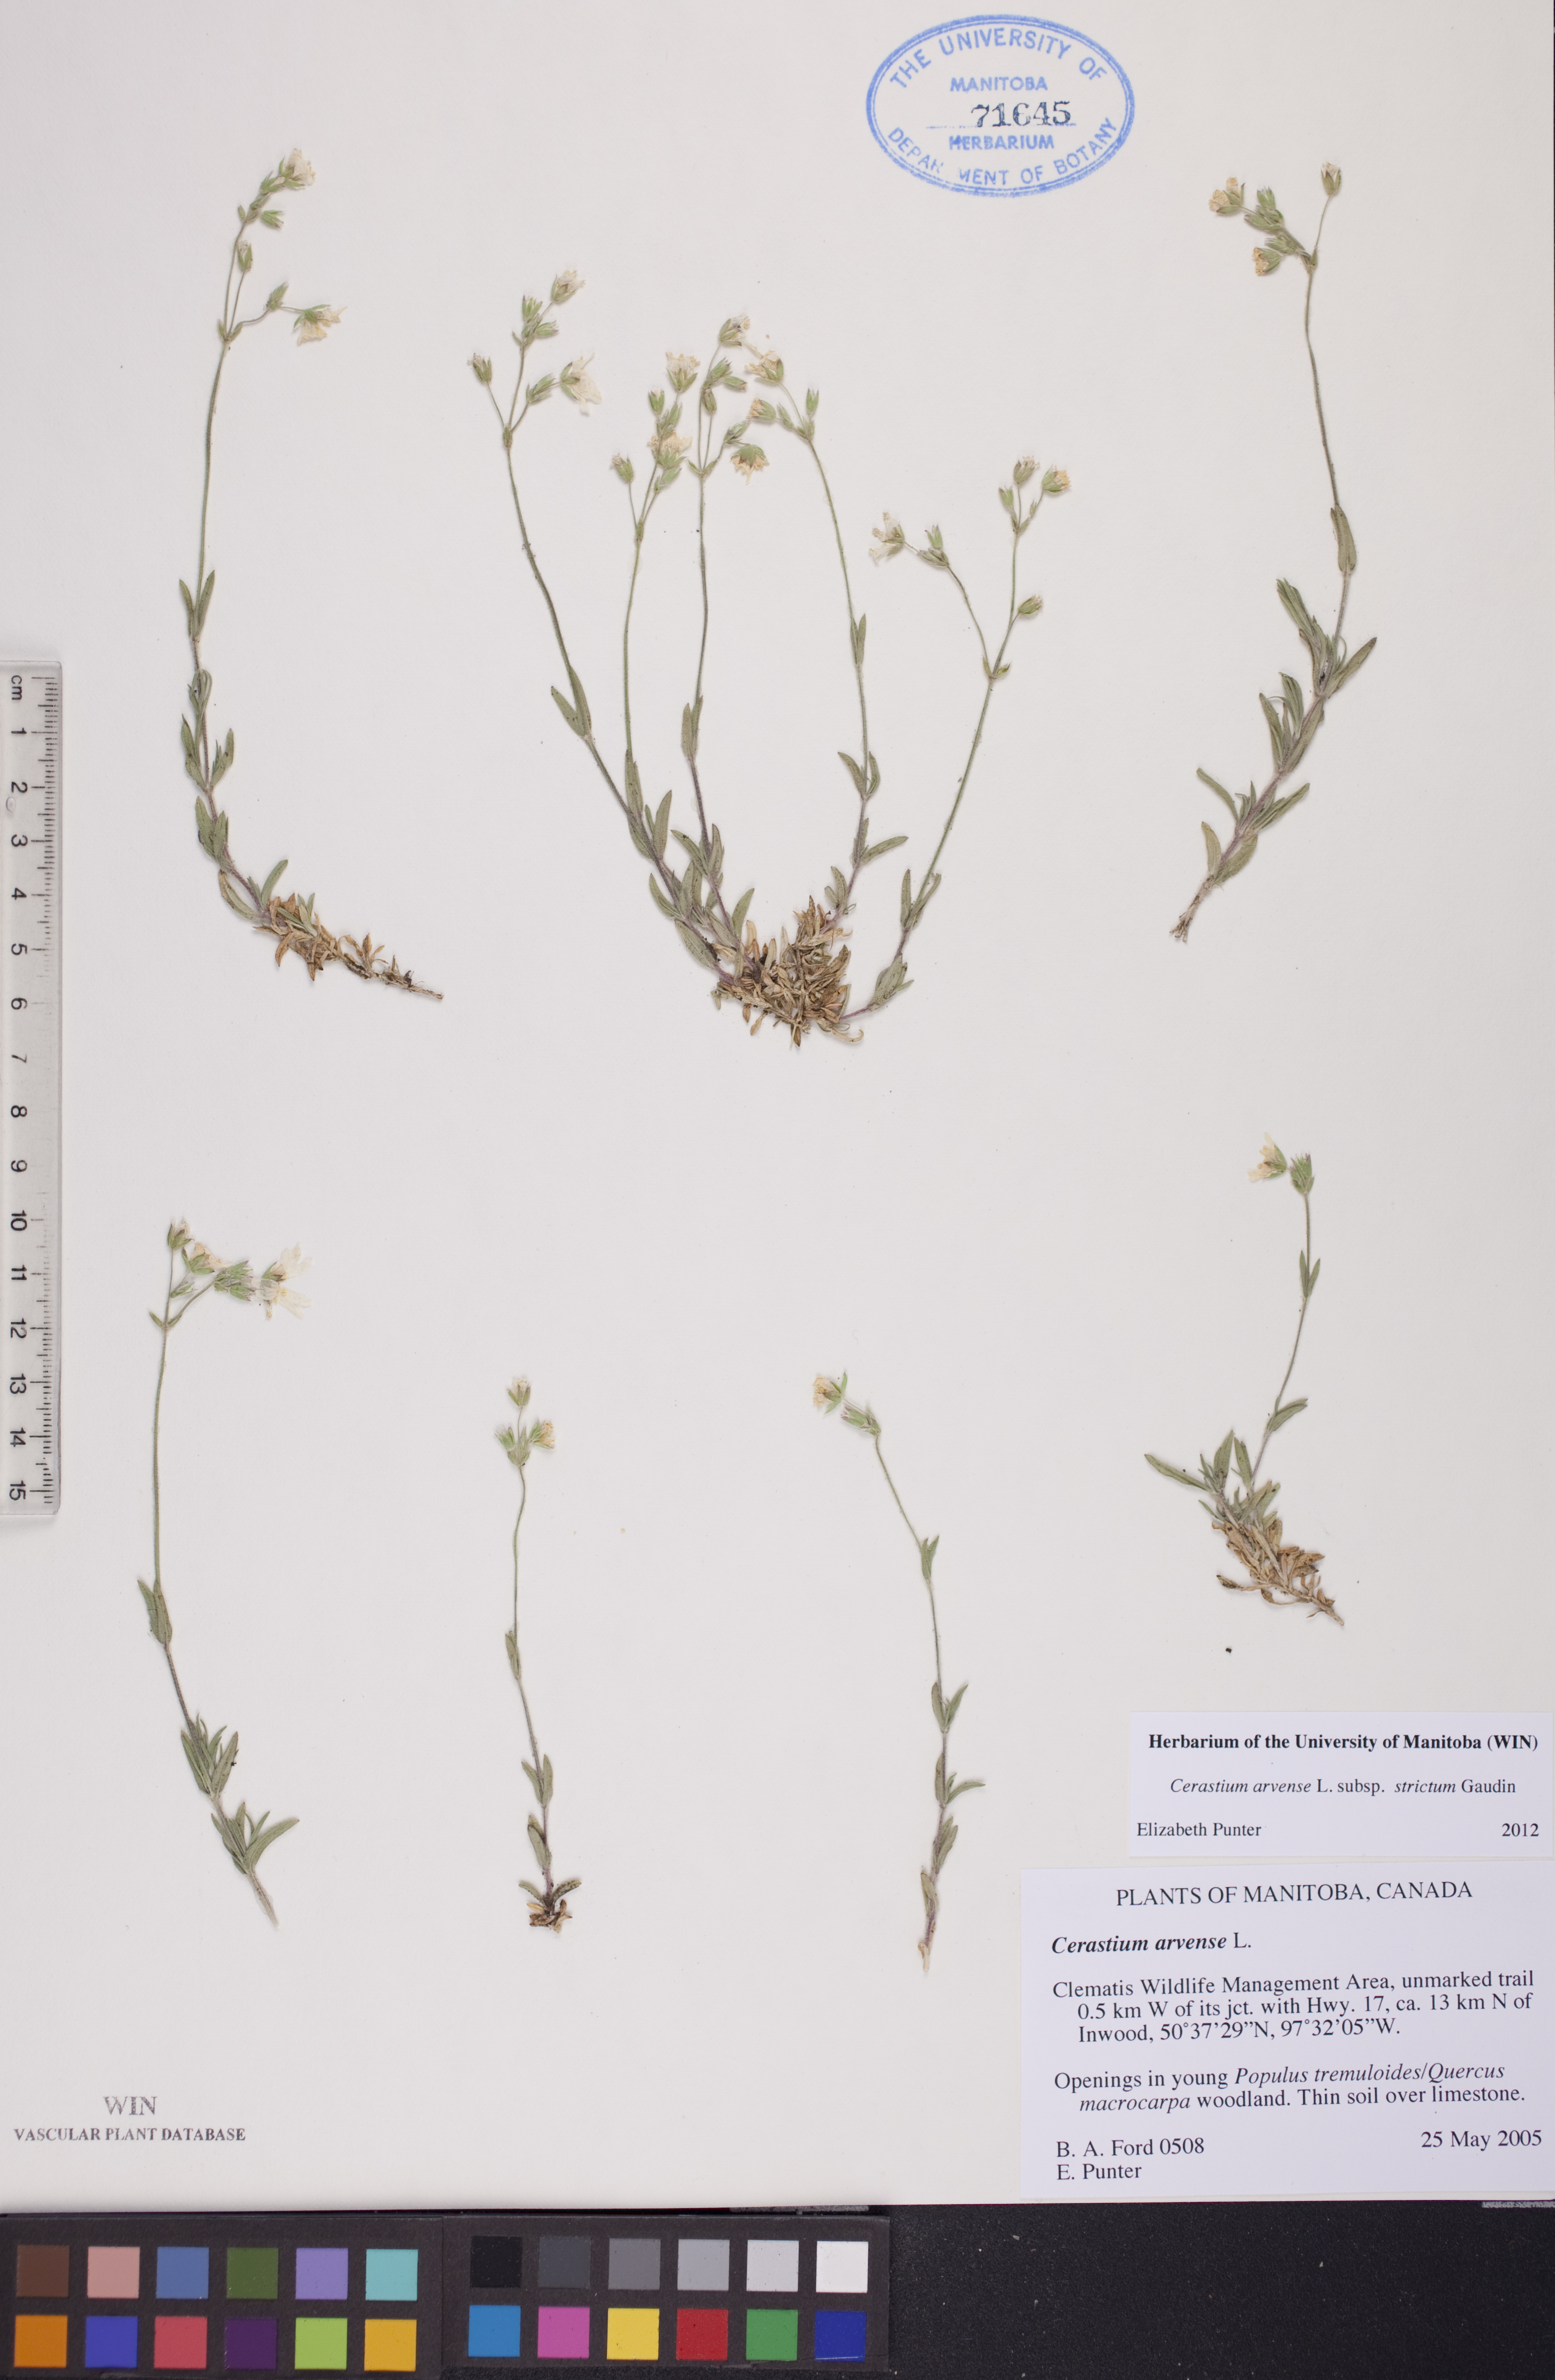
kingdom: Plantae
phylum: Tracheophyta
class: Magnoliopsida
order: Caryophyllales
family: Caryophyllaceae
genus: Cerastium
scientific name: Cerastium elongatum
